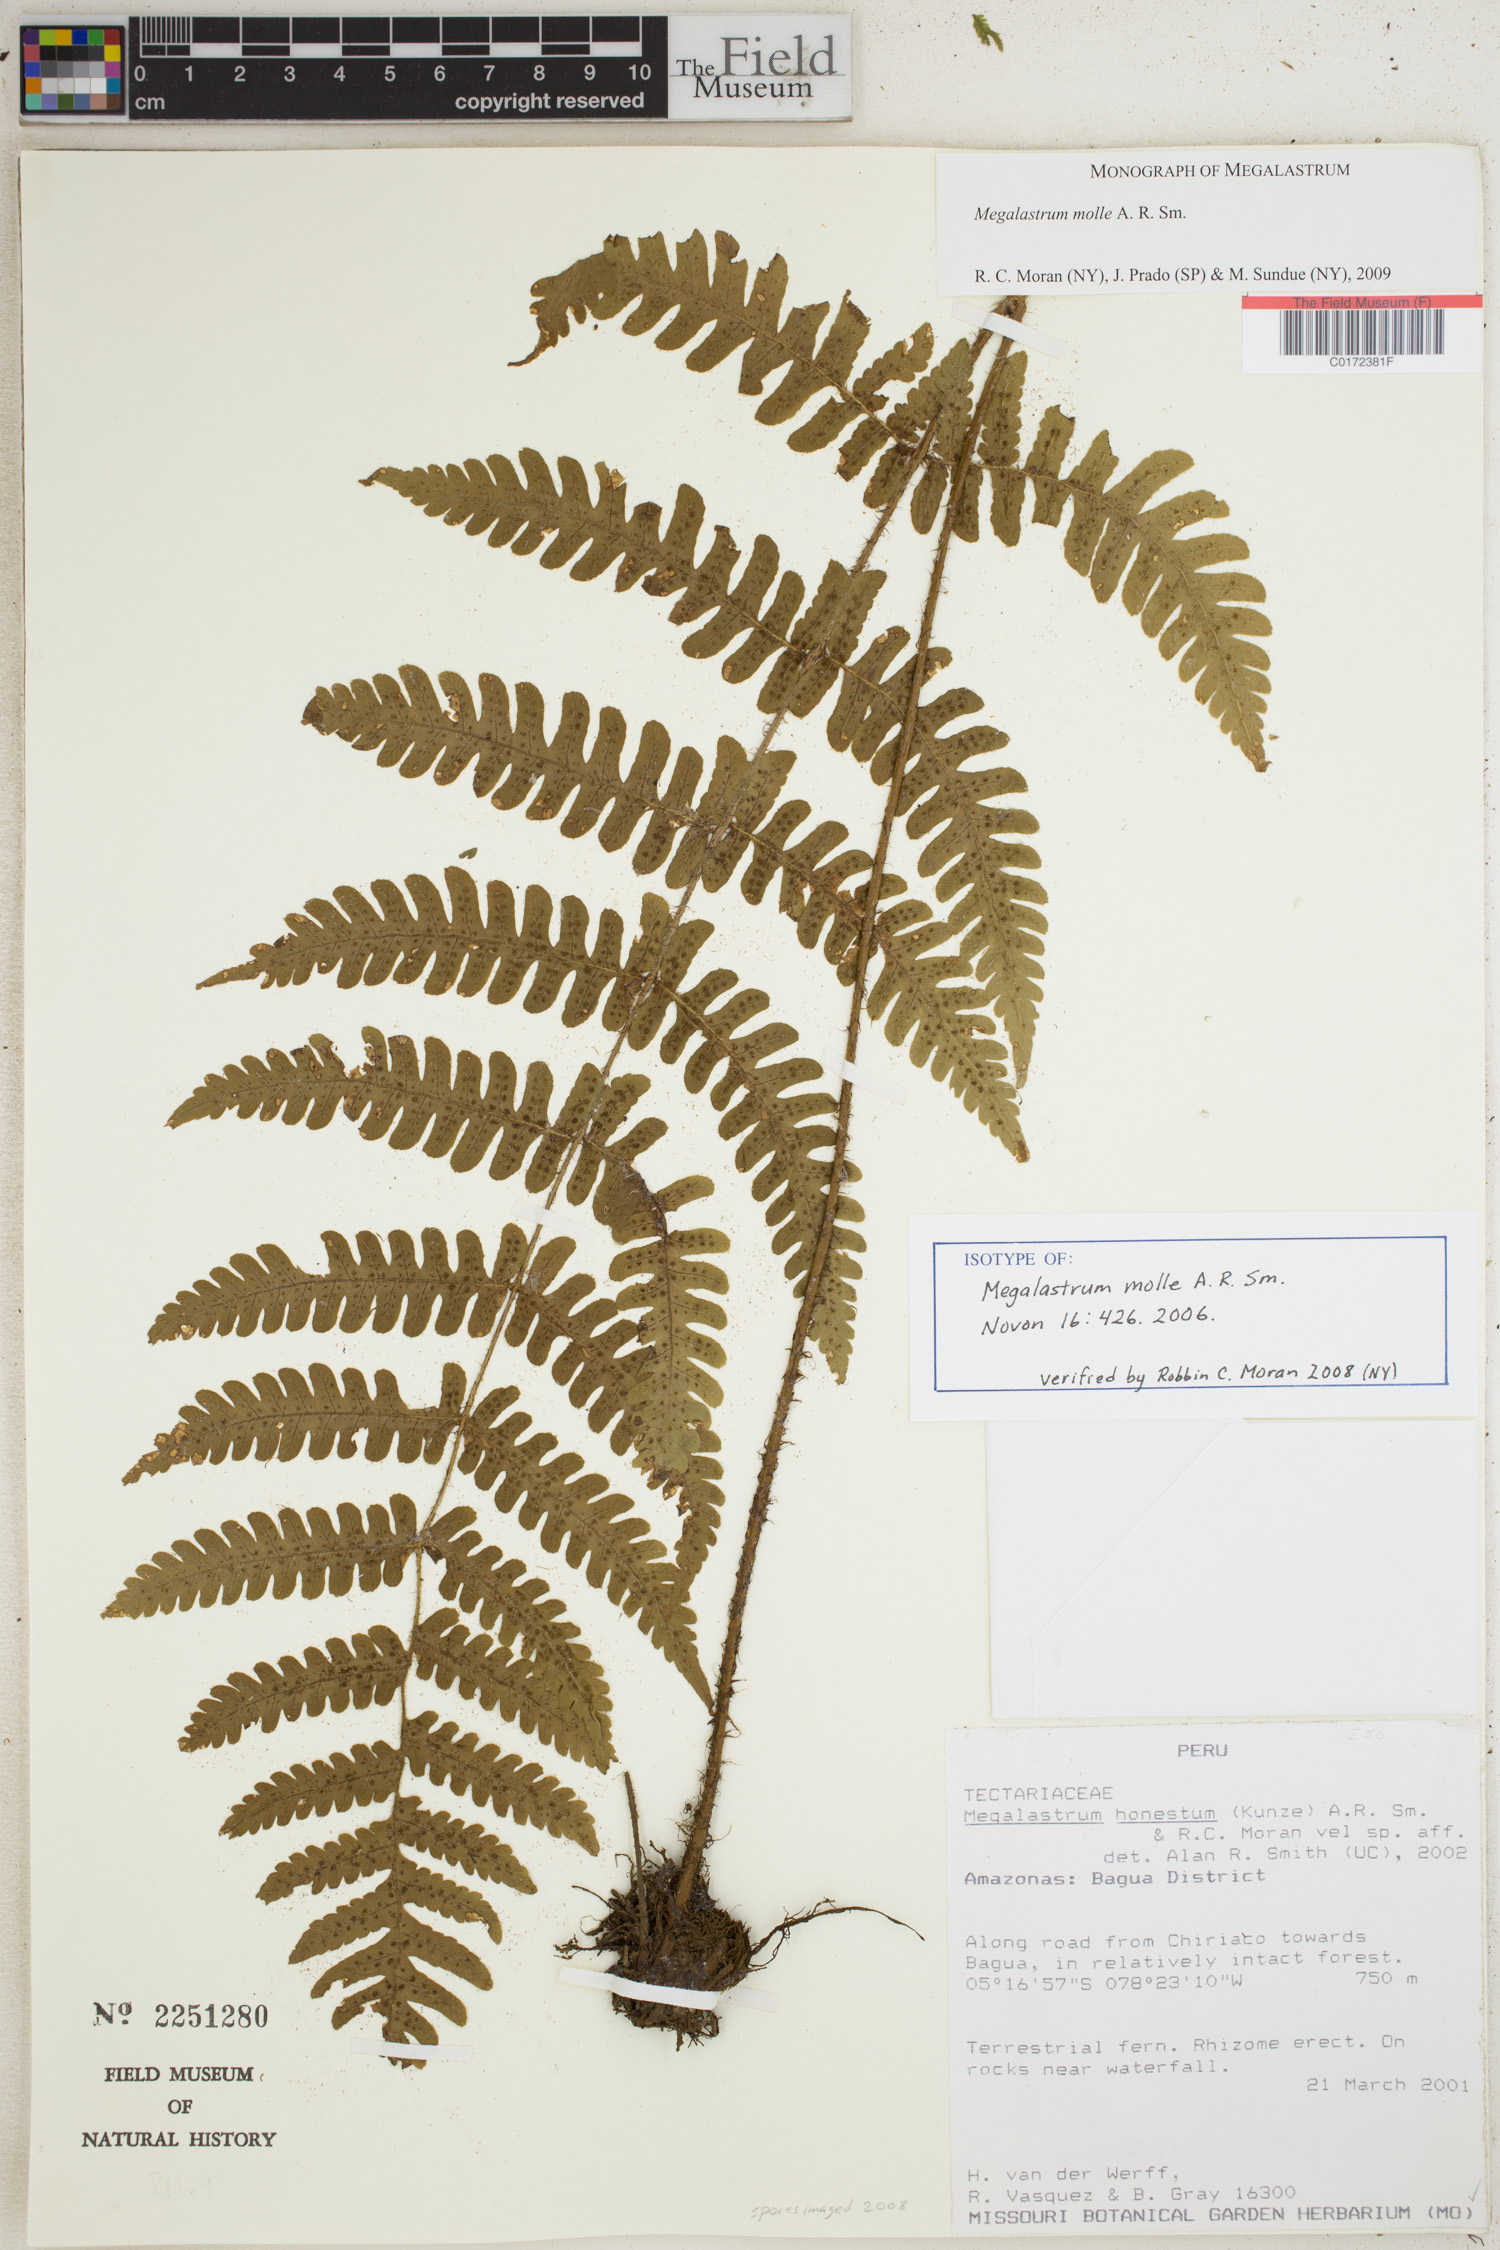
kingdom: Plantae
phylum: Tracheophyta
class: Polypodiopsida
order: Polypodiales
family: Dryopteridaceae
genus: Megalastrum
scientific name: Megalastrum molle
